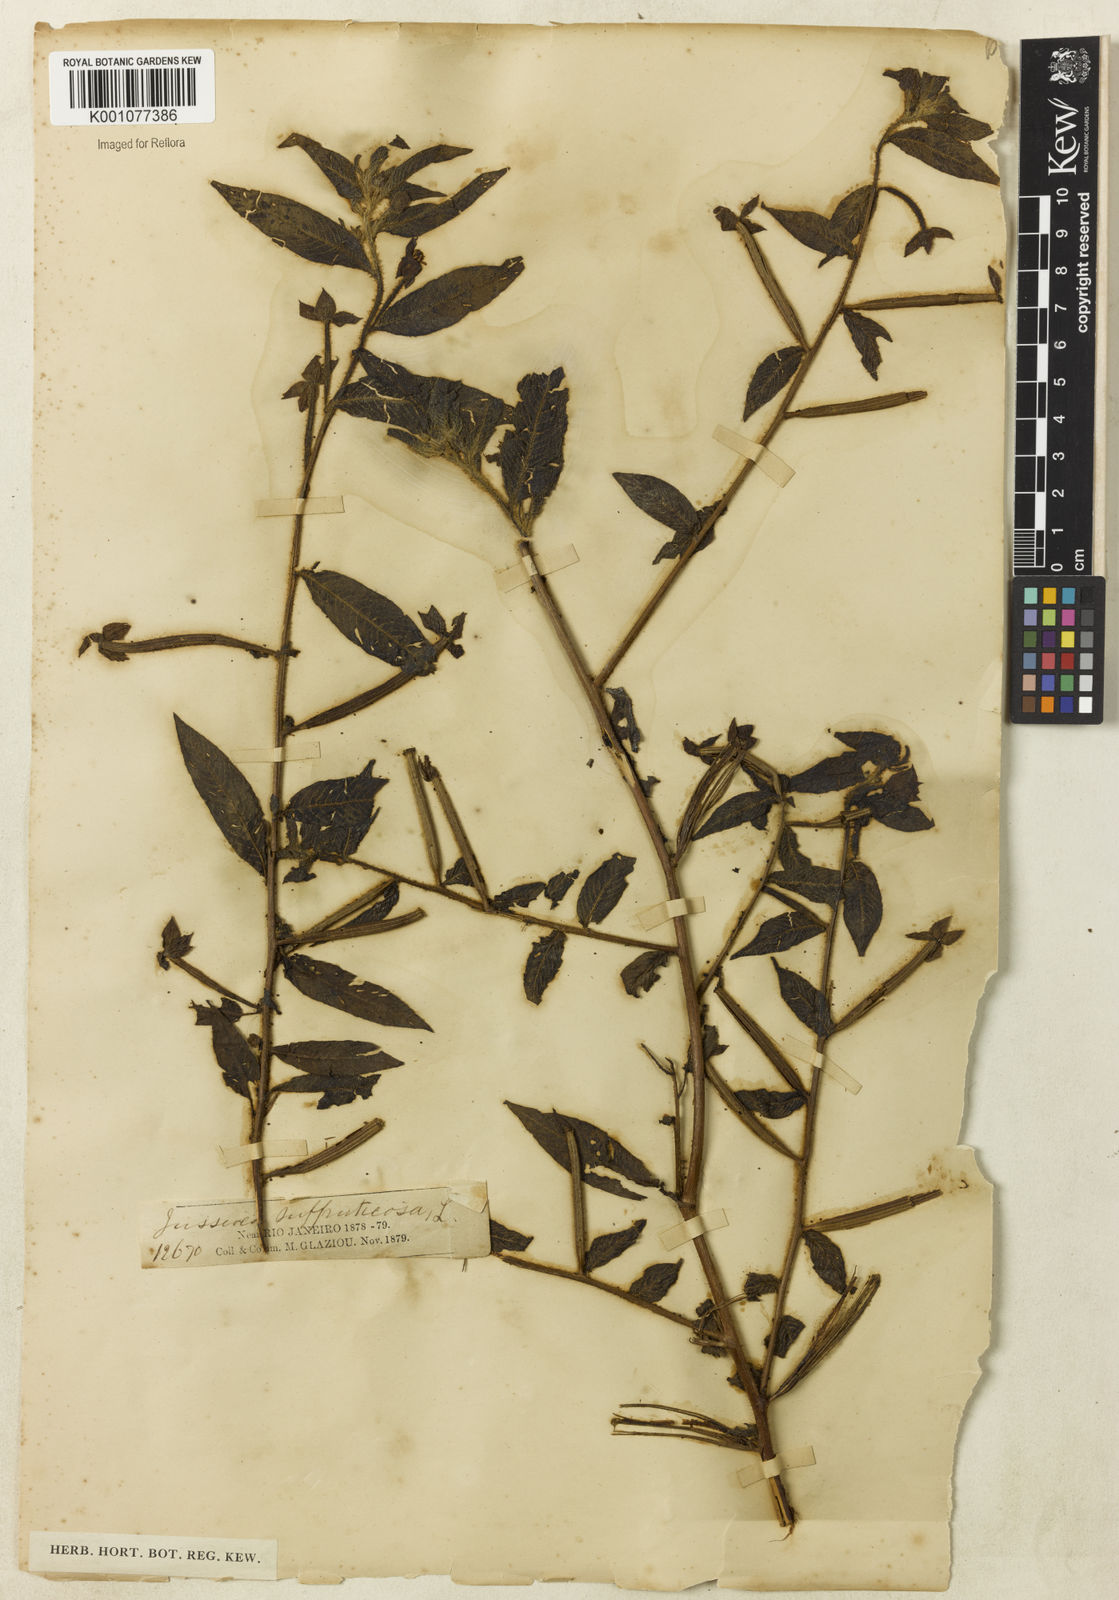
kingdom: Plantae
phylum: Tracheophyta
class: Magnoliopsida
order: Myrtales
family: Onagraceae
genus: Ludwigia
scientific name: Ludwigia octovalvis
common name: Water-primrose
